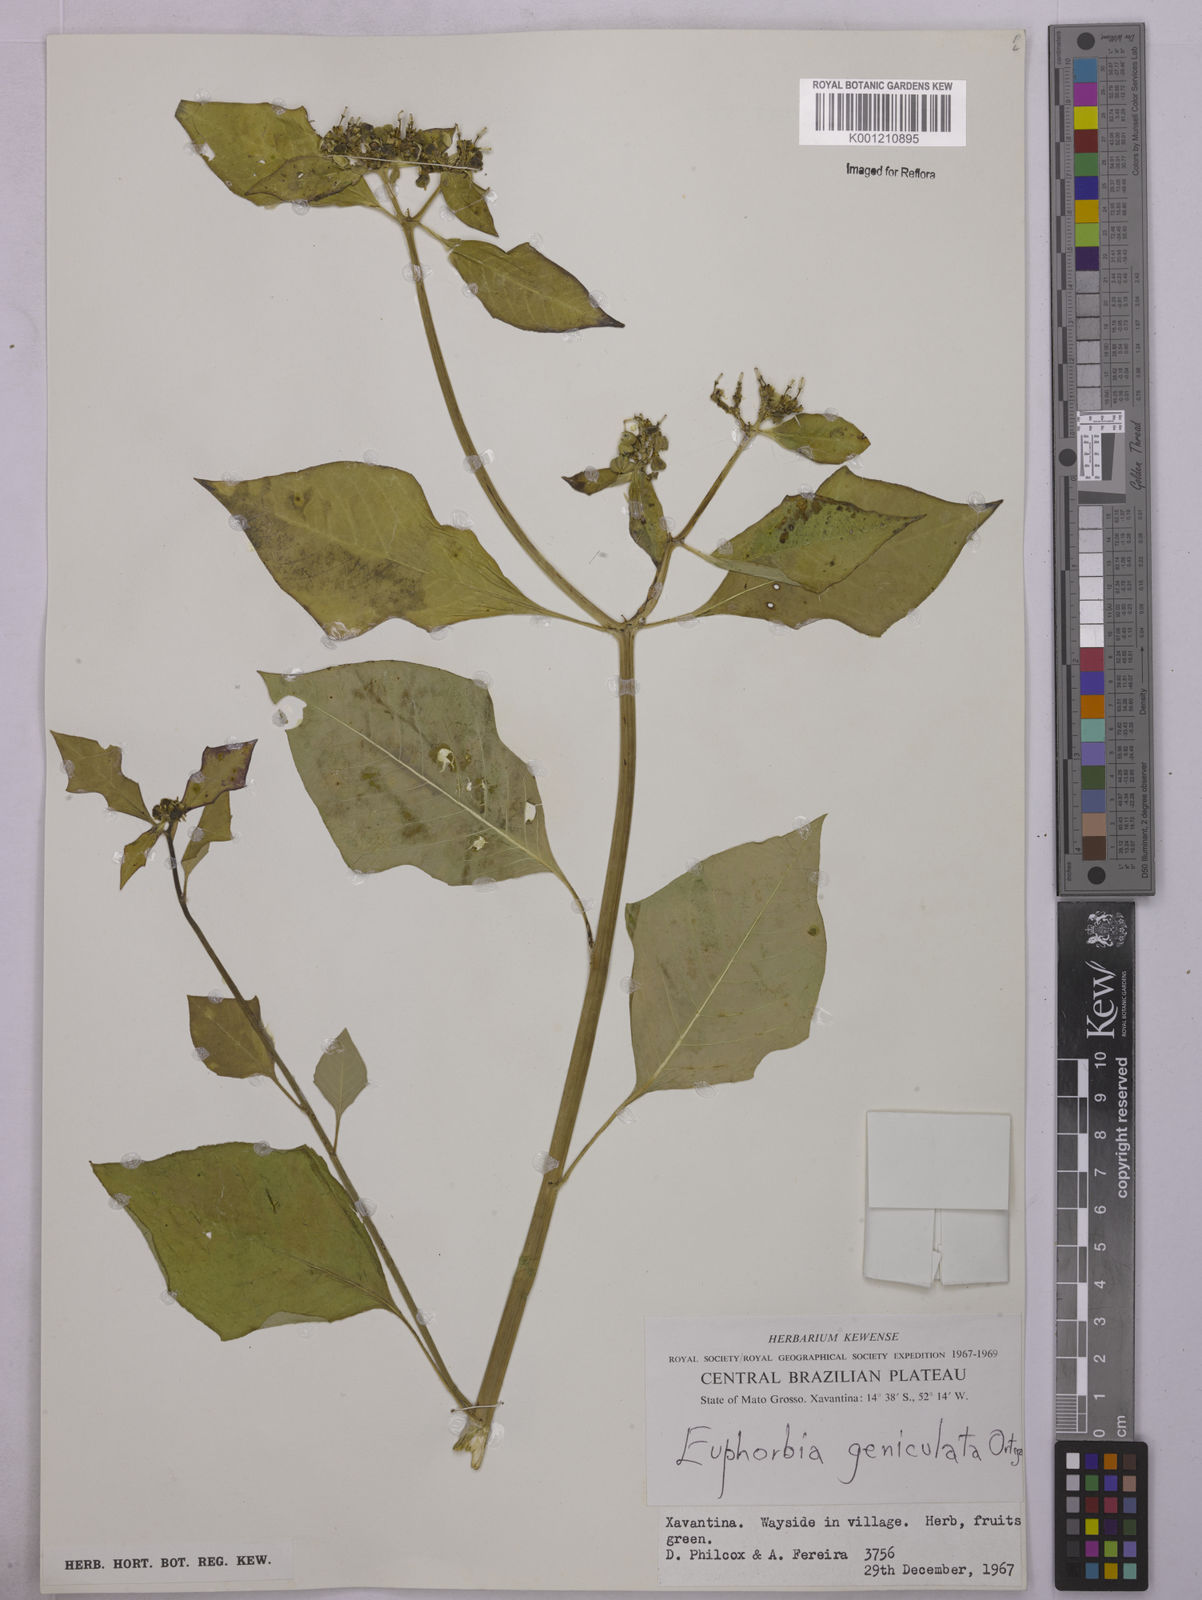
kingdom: Plantae
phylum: Tracheophyta
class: Magnoliopsida
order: Malpighiales
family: Euphorbiaceae
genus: Euphorbia
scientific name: Euphorbia heterophylla
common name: Mexican fireplant
